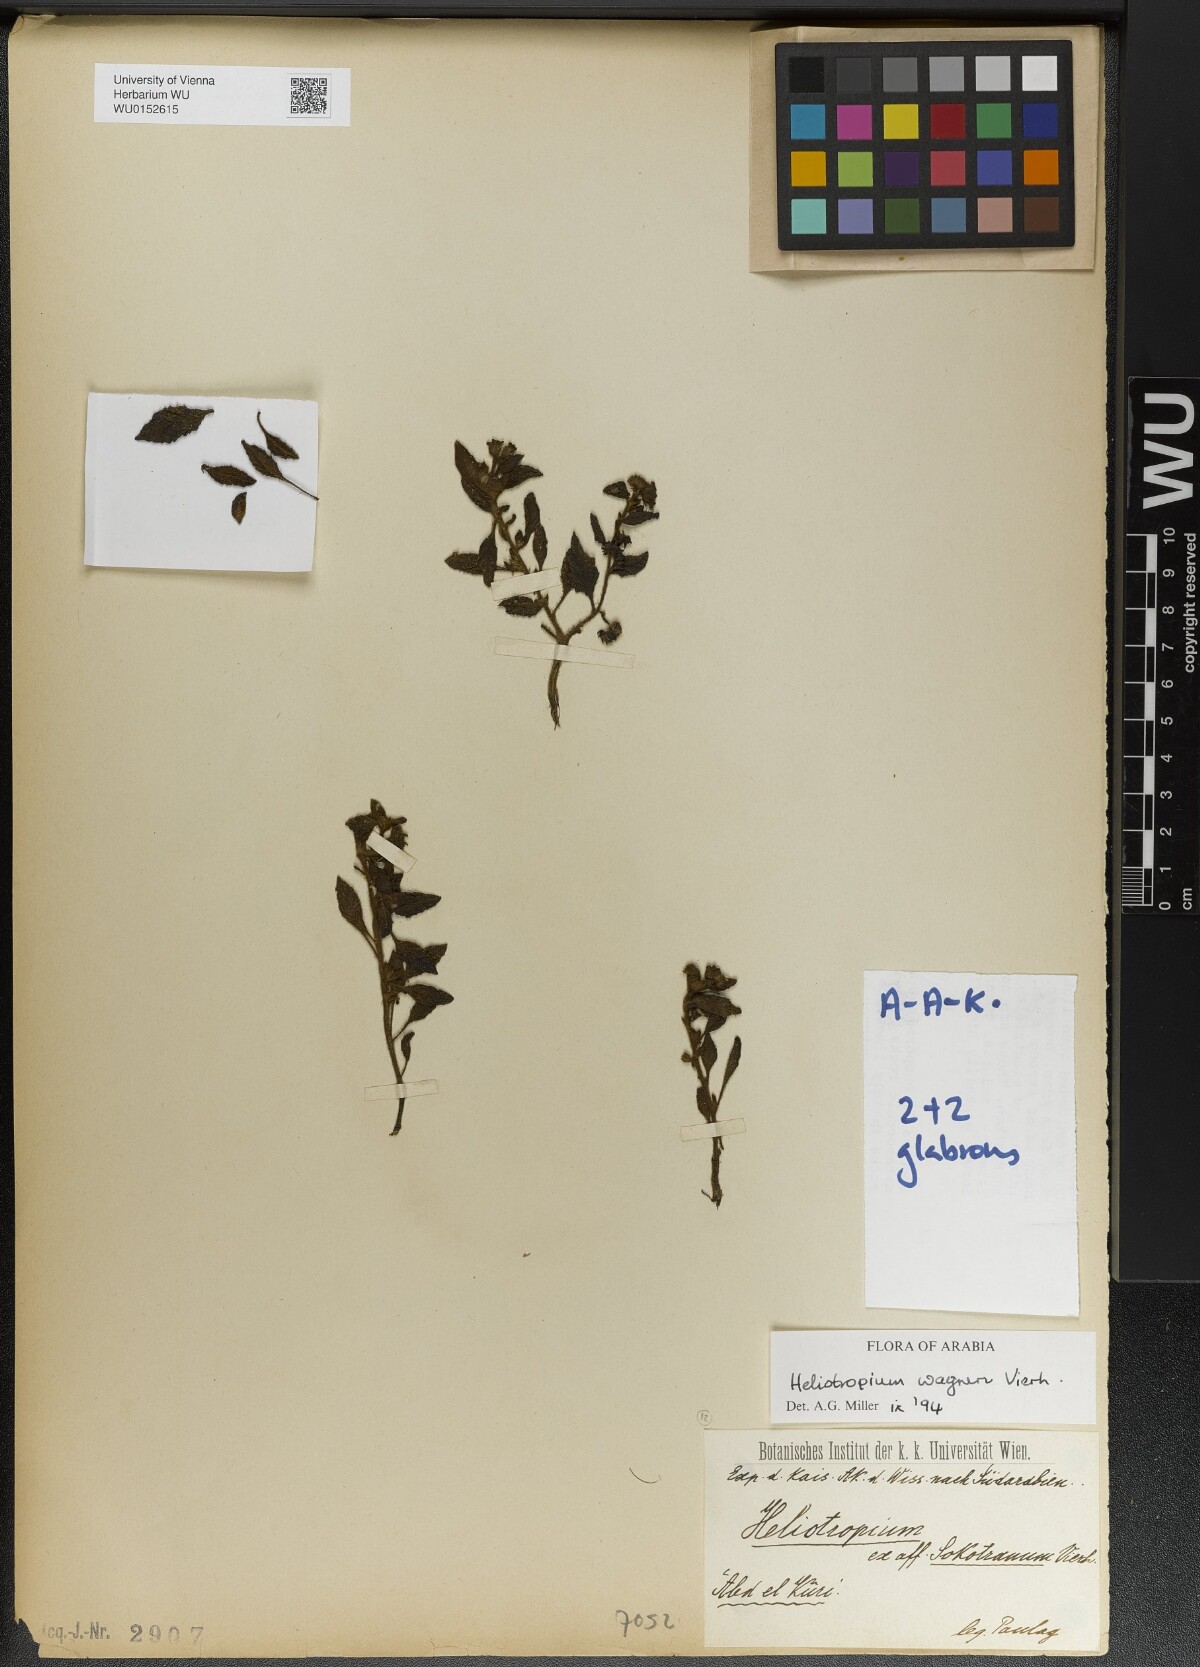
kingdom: Plantae
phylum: Tracheophyta
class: Magnoliopsida
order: Boraginales
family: Heliotropiaceae
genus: Heliotropium
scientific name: Heliotropium wagneri
